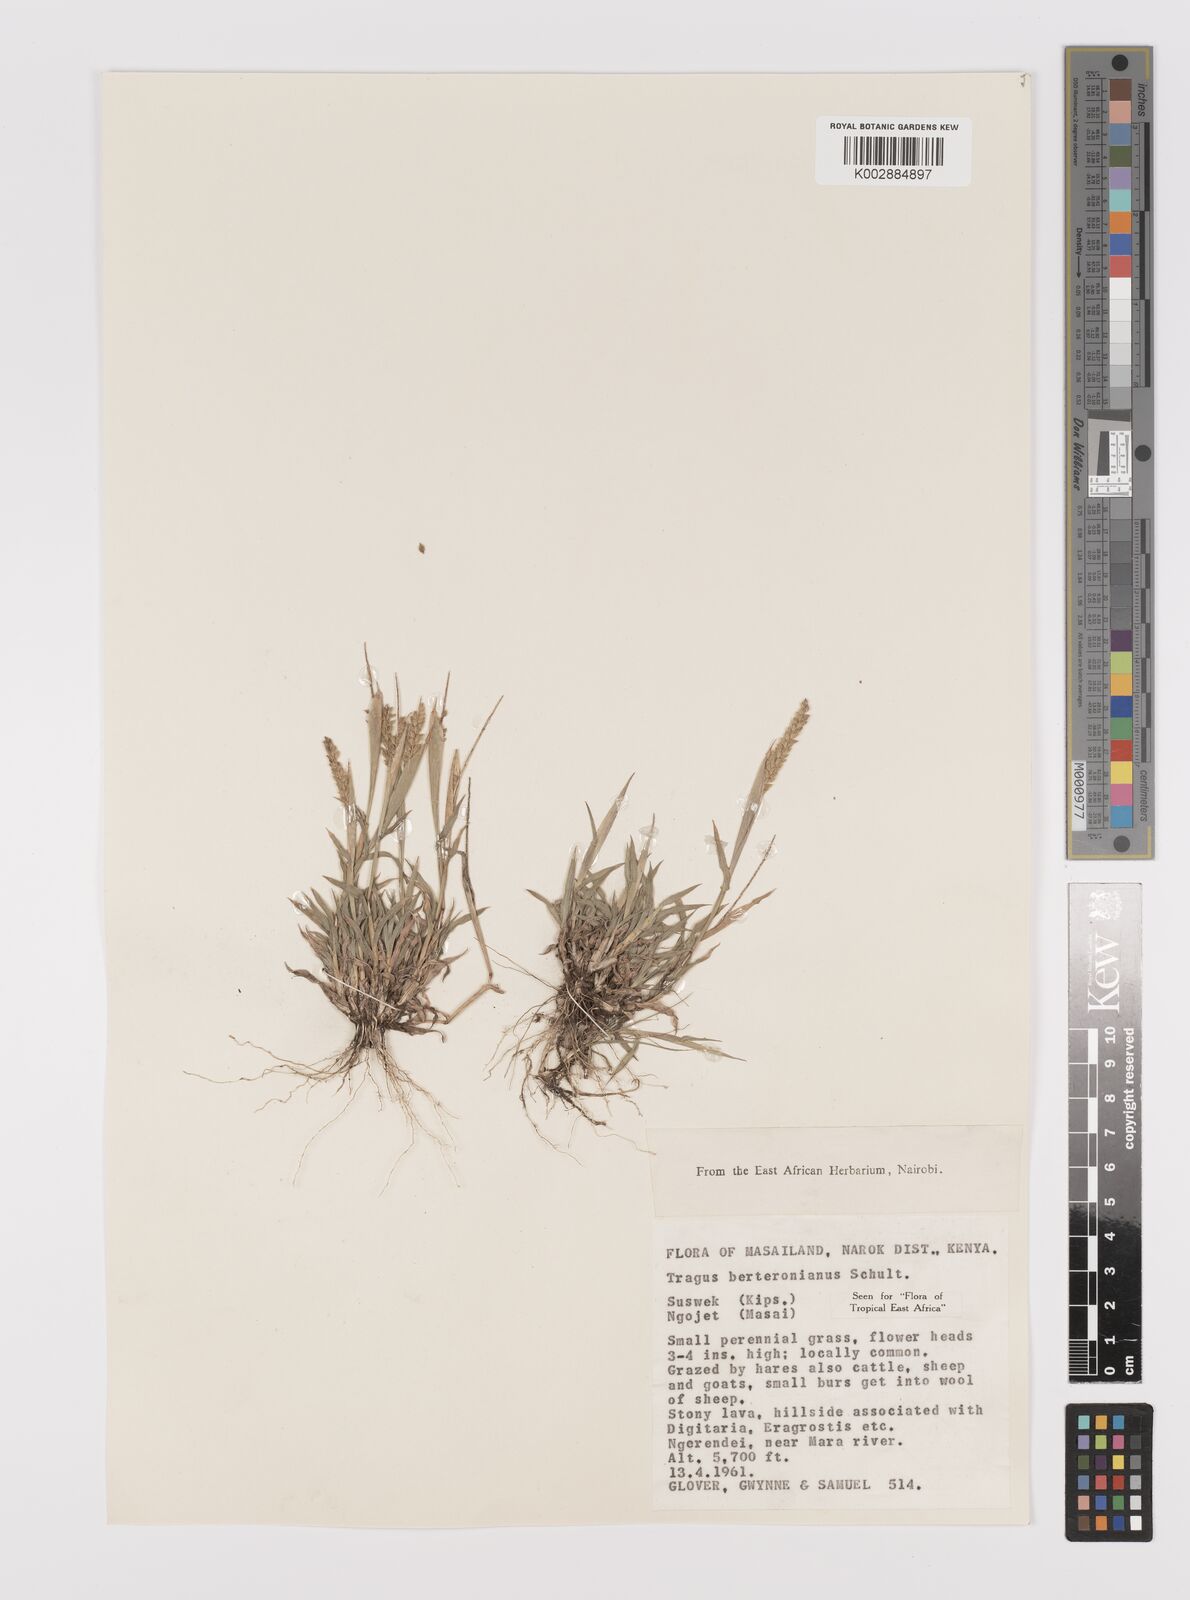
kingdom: Plantae
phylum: Tracheophyta
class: Liliopsida
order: Poales
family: Poaceae
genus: Tragus
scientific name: Tragus berteronianus
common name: African bur-grass
